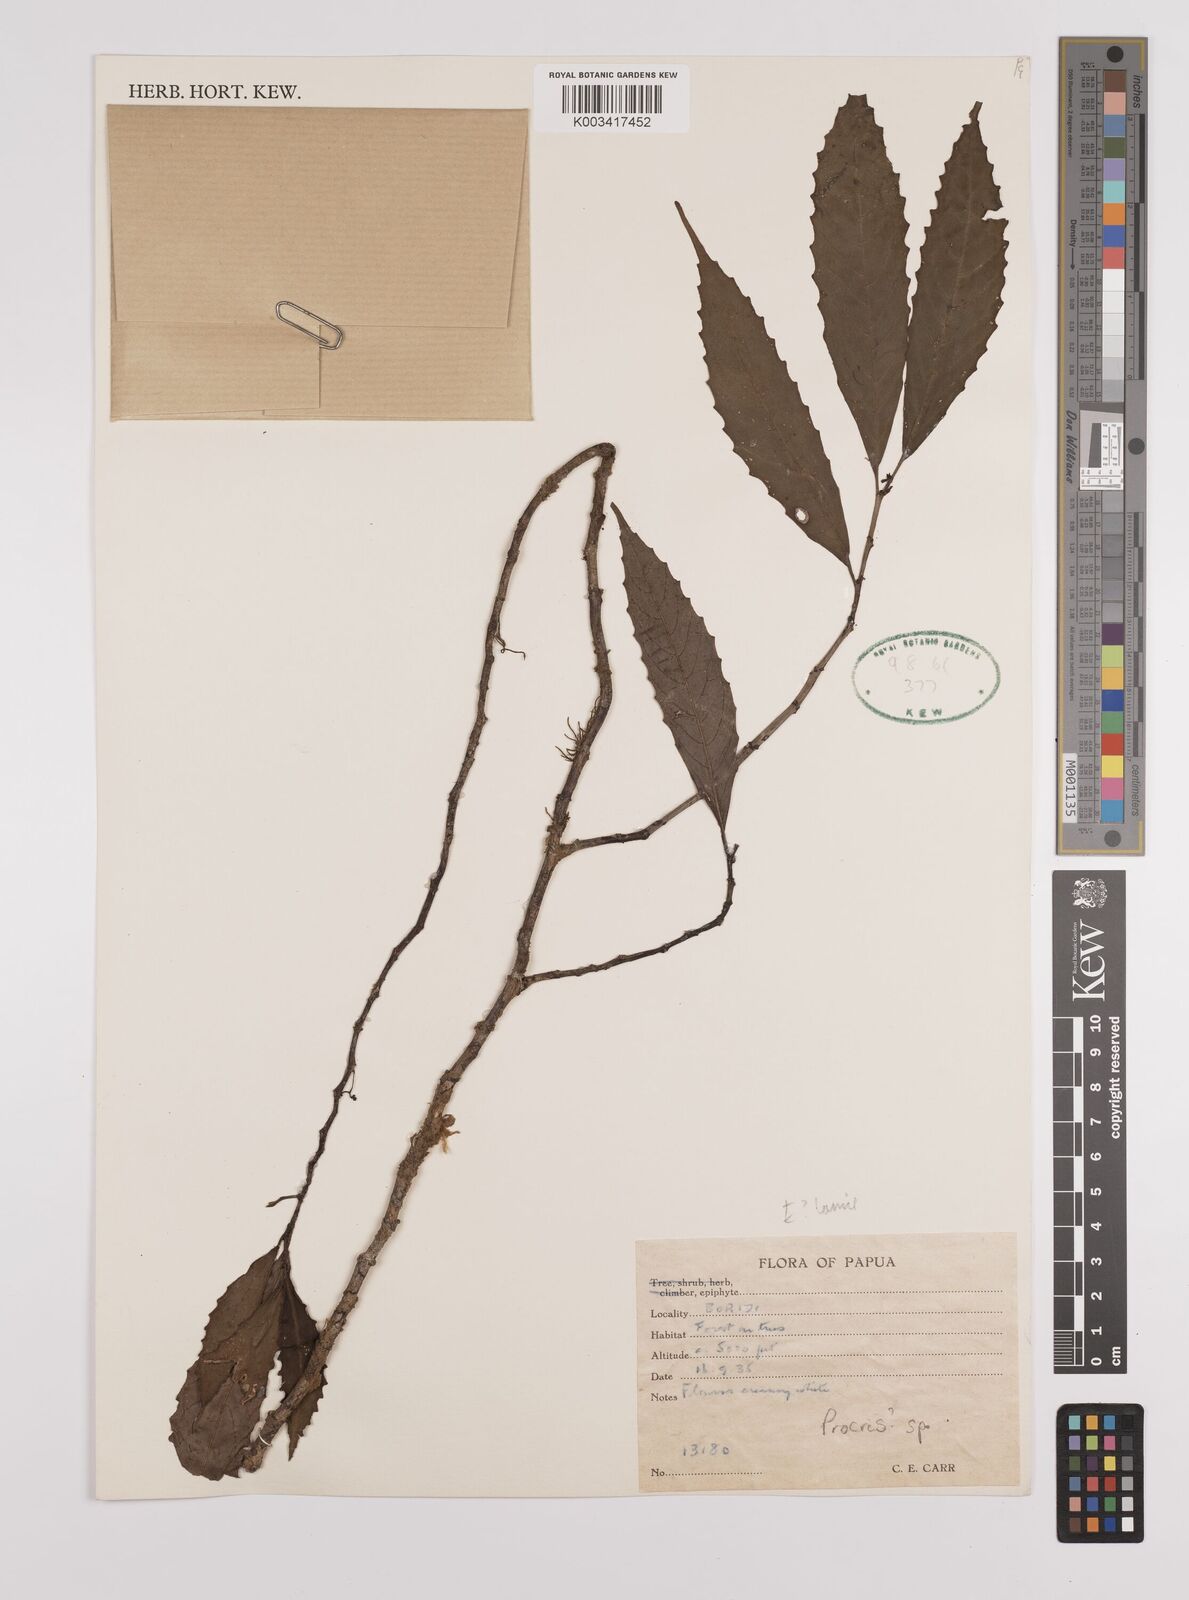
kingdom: Plantae
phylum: Tracheophyta
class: Magnoliopsida
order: Rosales
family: Urticaceae
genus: Procris
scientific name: Procris
